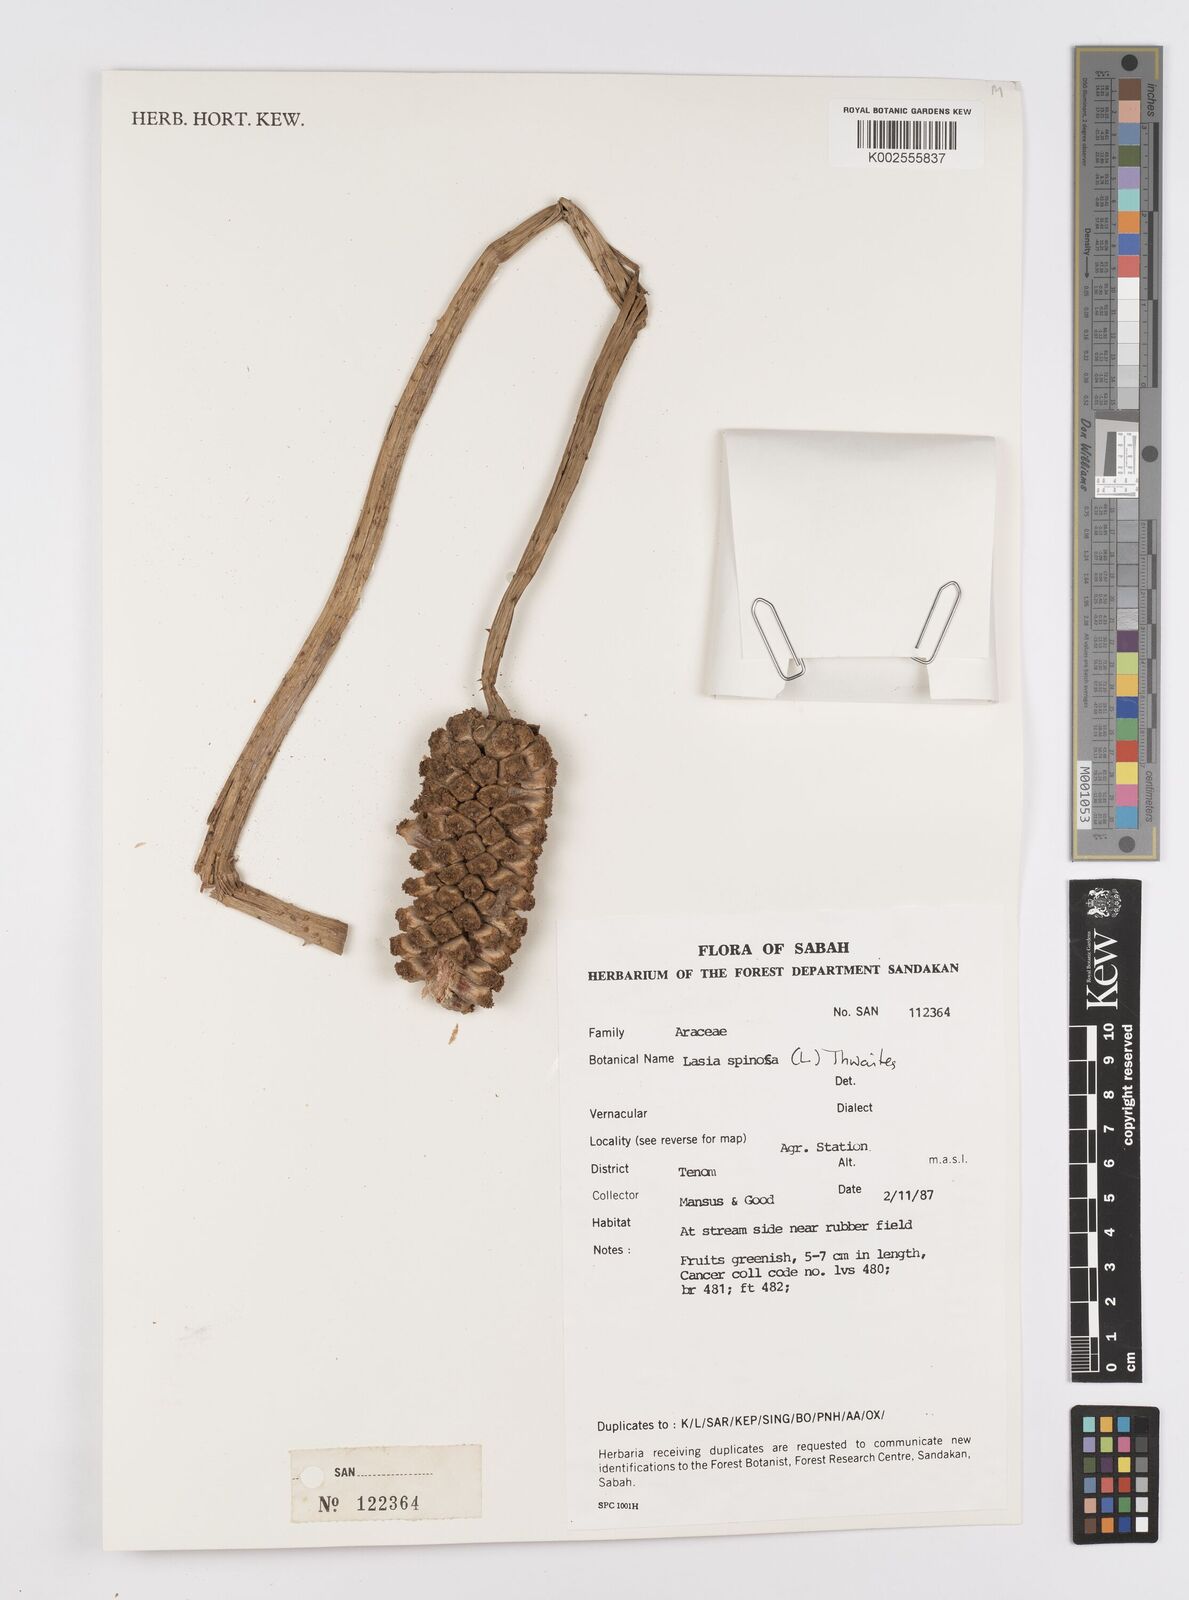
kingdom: Plantae
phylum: Tracheophyta
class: Liliopsida
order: Alismatales
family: Araceae
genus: Lasia
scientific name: Lasia spinosa
